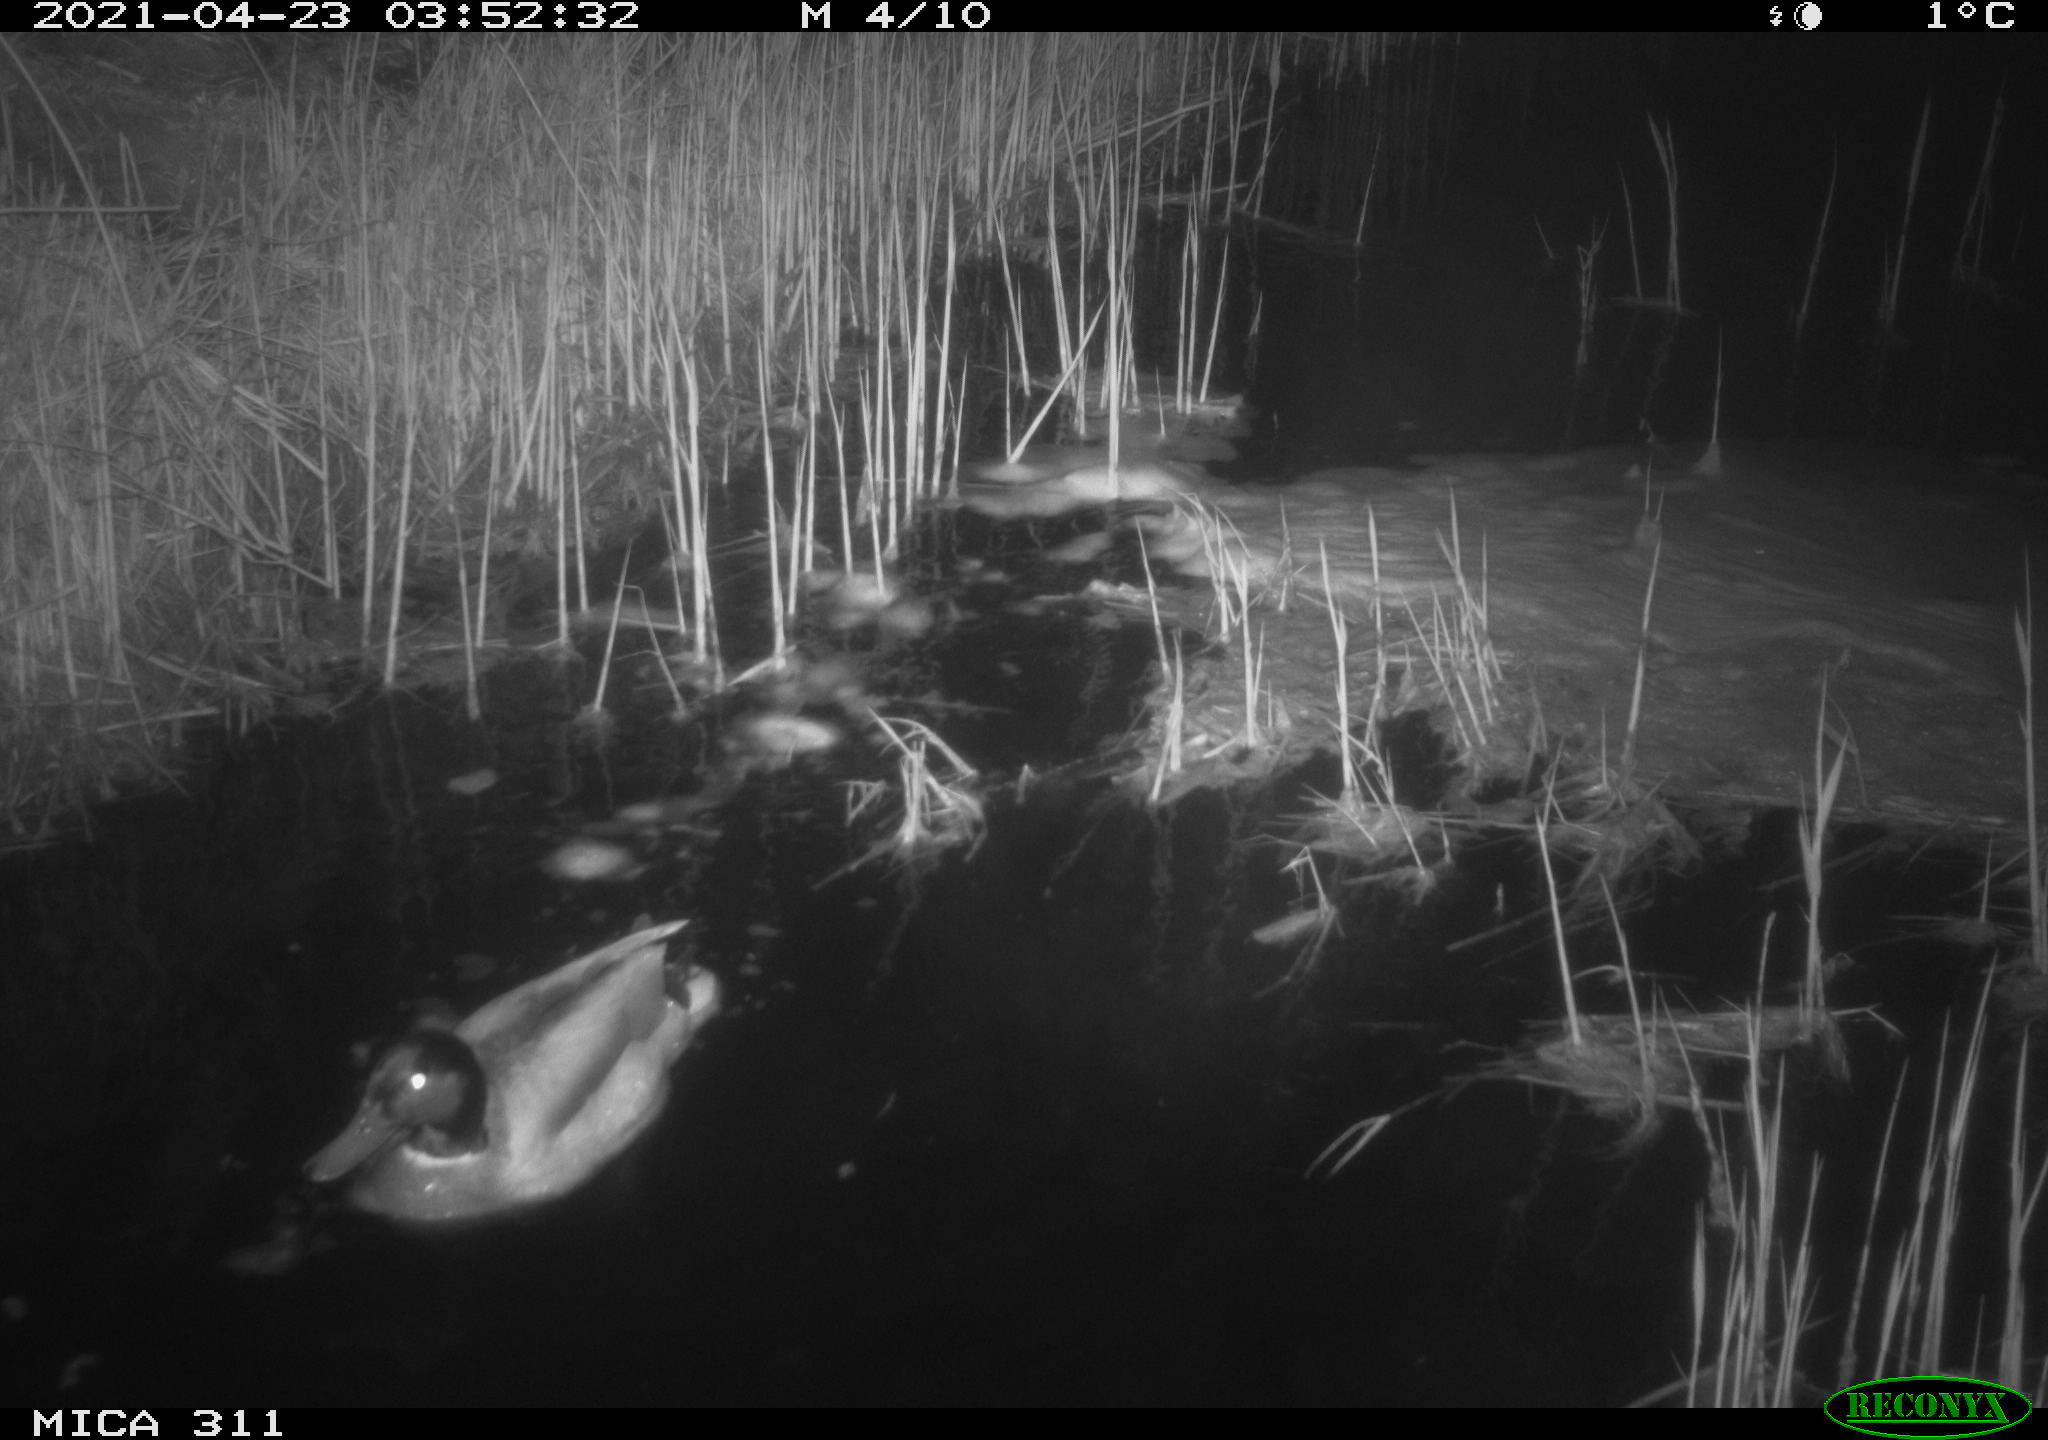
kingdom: Animalia
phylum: Chordata
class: Aves
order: Anseriformes
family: Anatidae
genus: Anas
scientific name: Anas platyrhynchos
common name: Mallard
